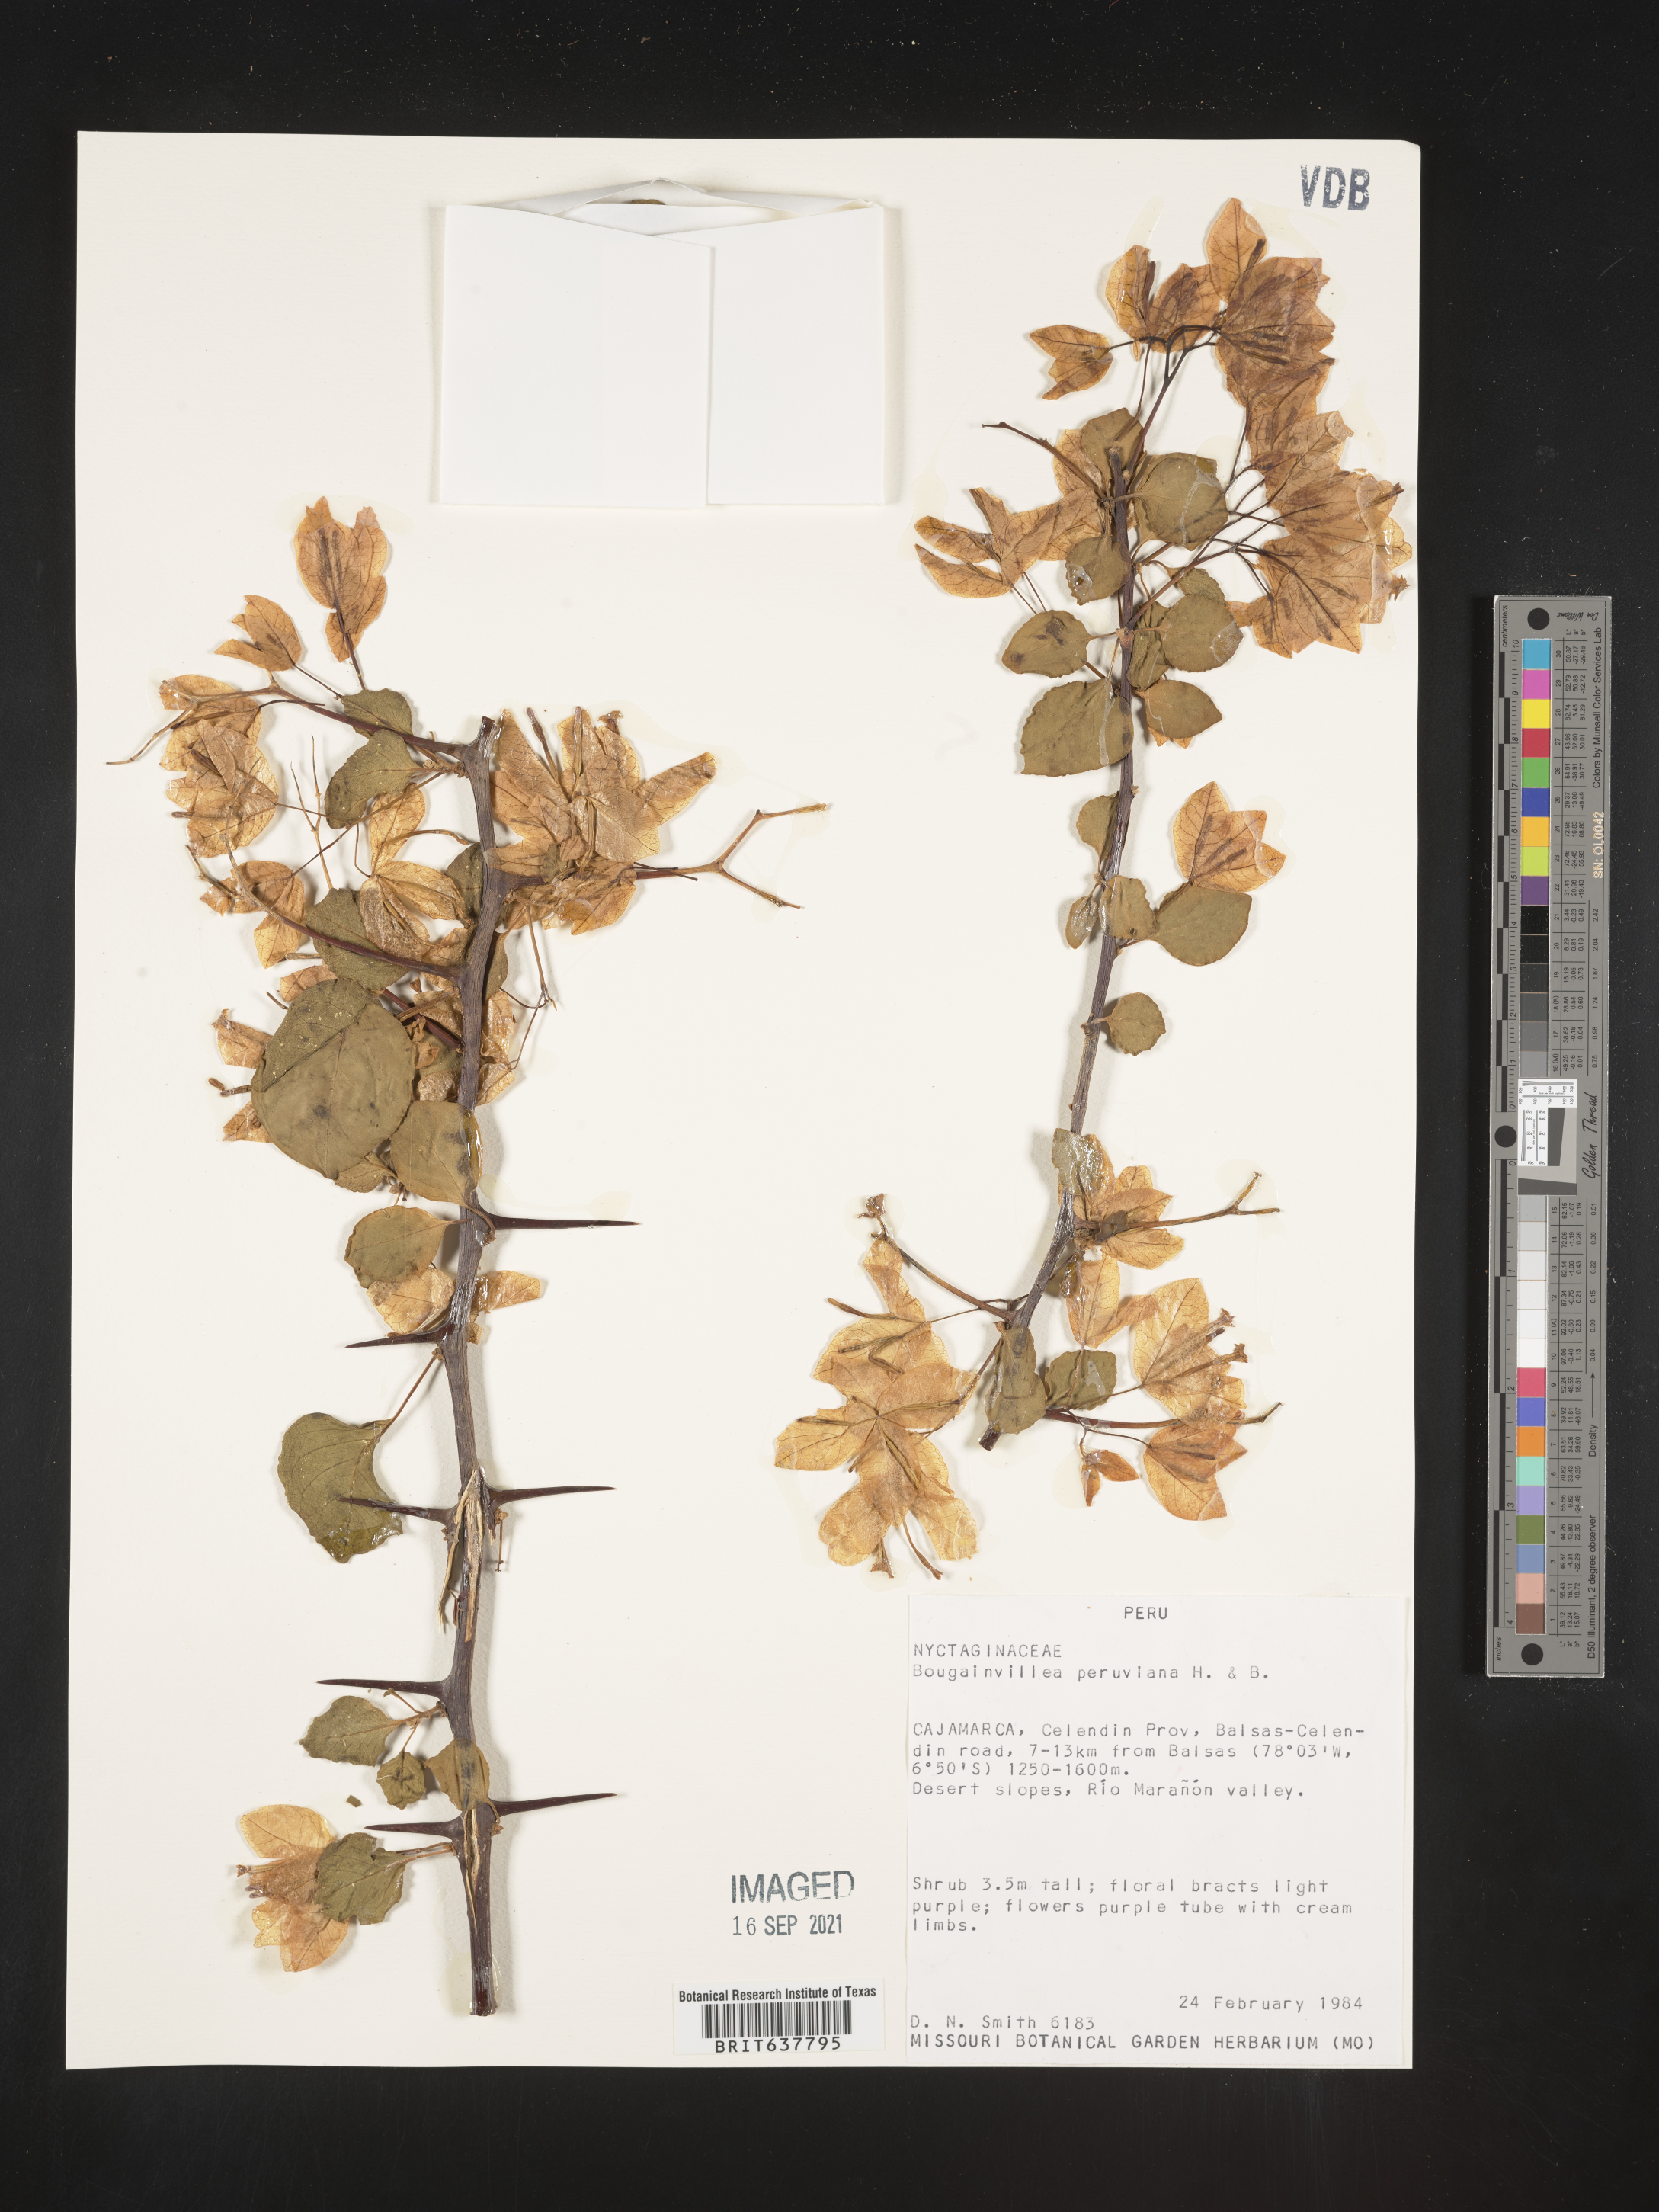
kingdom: Plantae
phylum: Tracheophyta
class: Magnoliopsida
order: Caryophyllales
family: Nyctaginaceae
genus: Bougainvillea
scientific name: Bougainvillea
